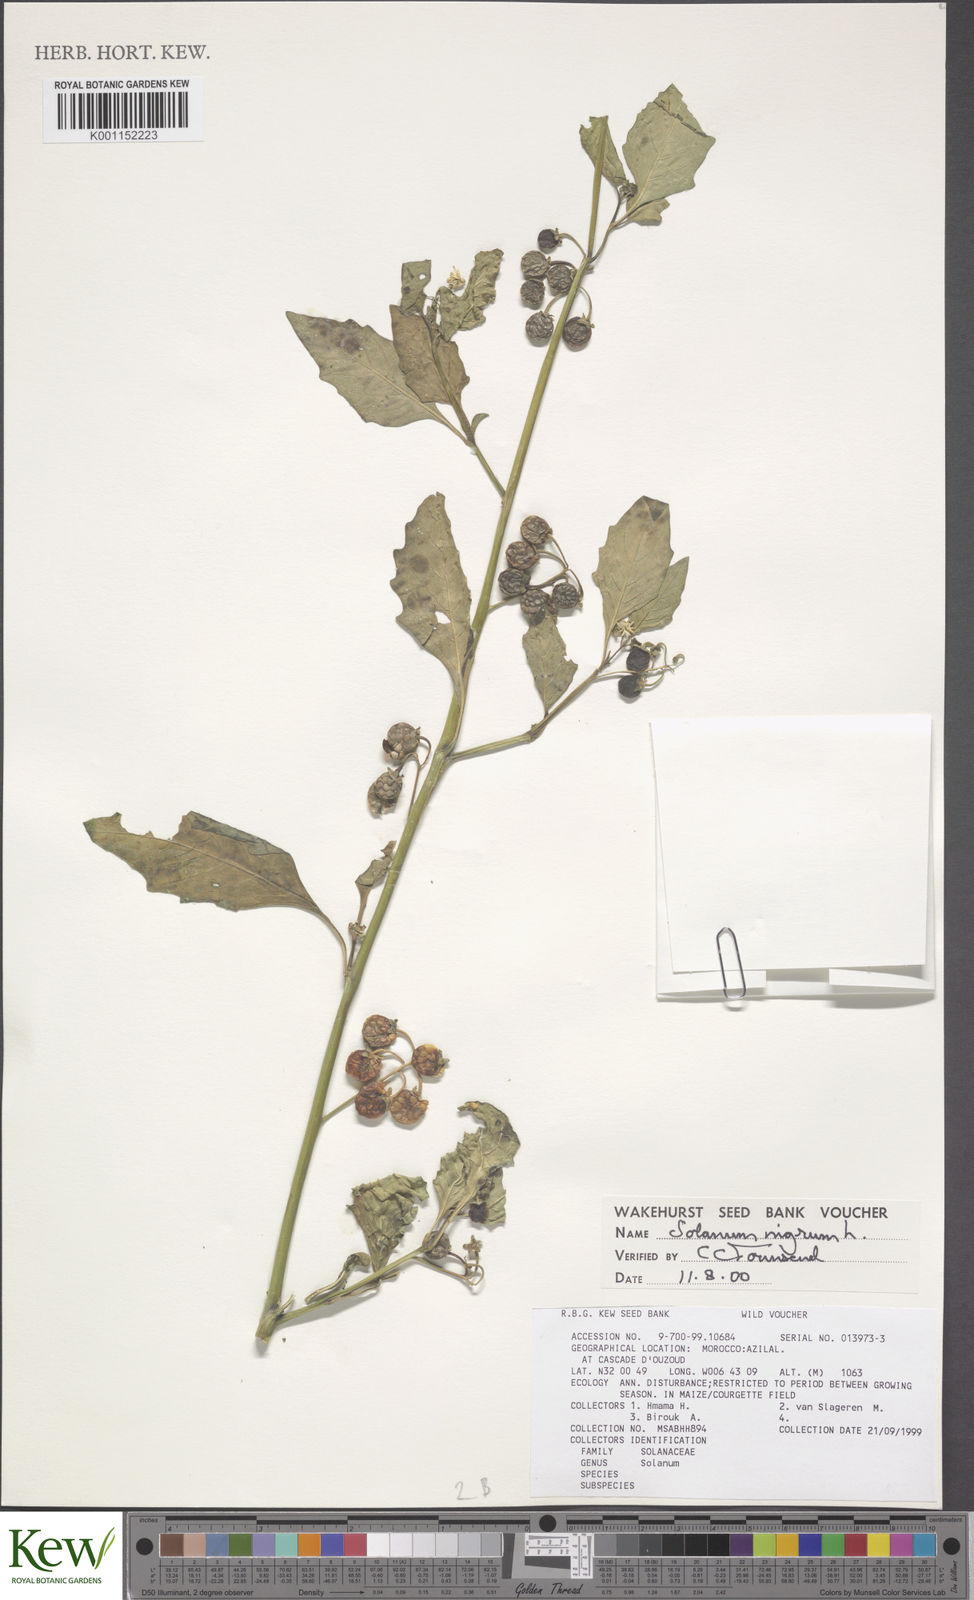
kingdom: Plantae
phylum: Tracheophyta
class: Magnoliopsida
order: Solanales
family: Solanaceae
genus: Solanum
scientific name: Solanum nigrum
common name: Black nightshade
